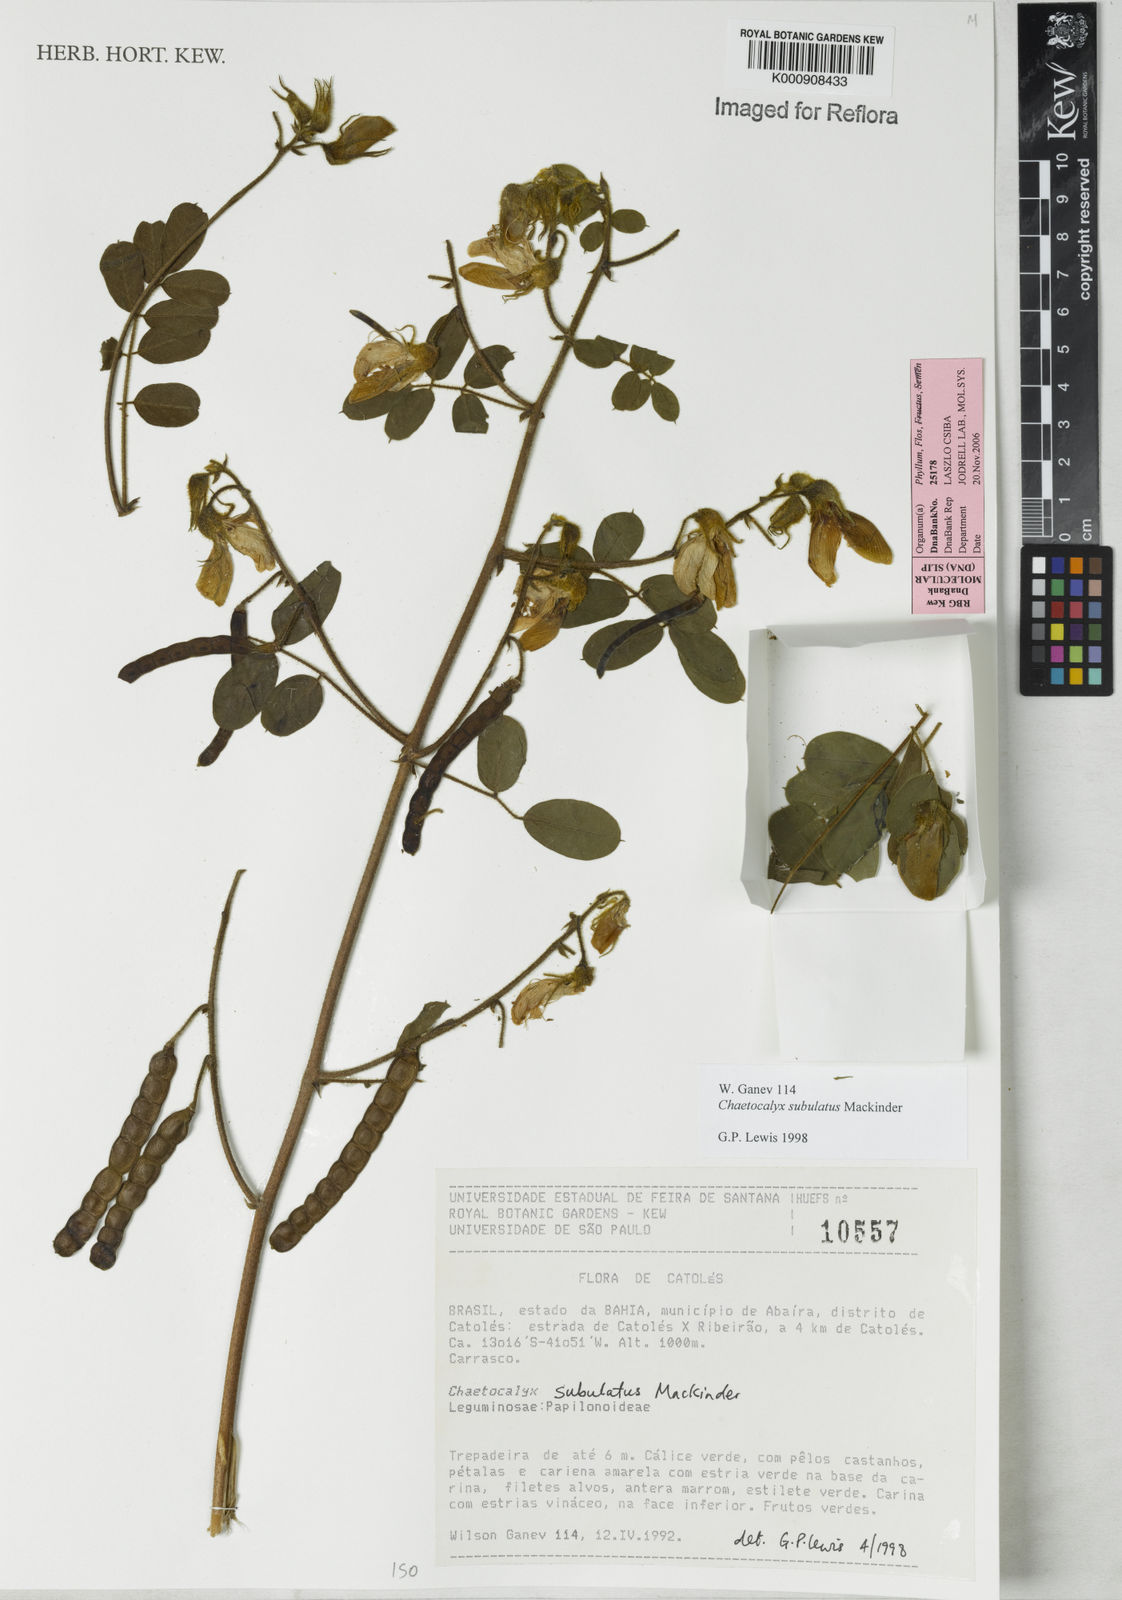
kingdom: Plantae
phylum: Tracheophyta
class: Magnoliopsida
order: Fabales
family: Fabaceae
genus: Nissolia
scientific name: Nissolia subulata
